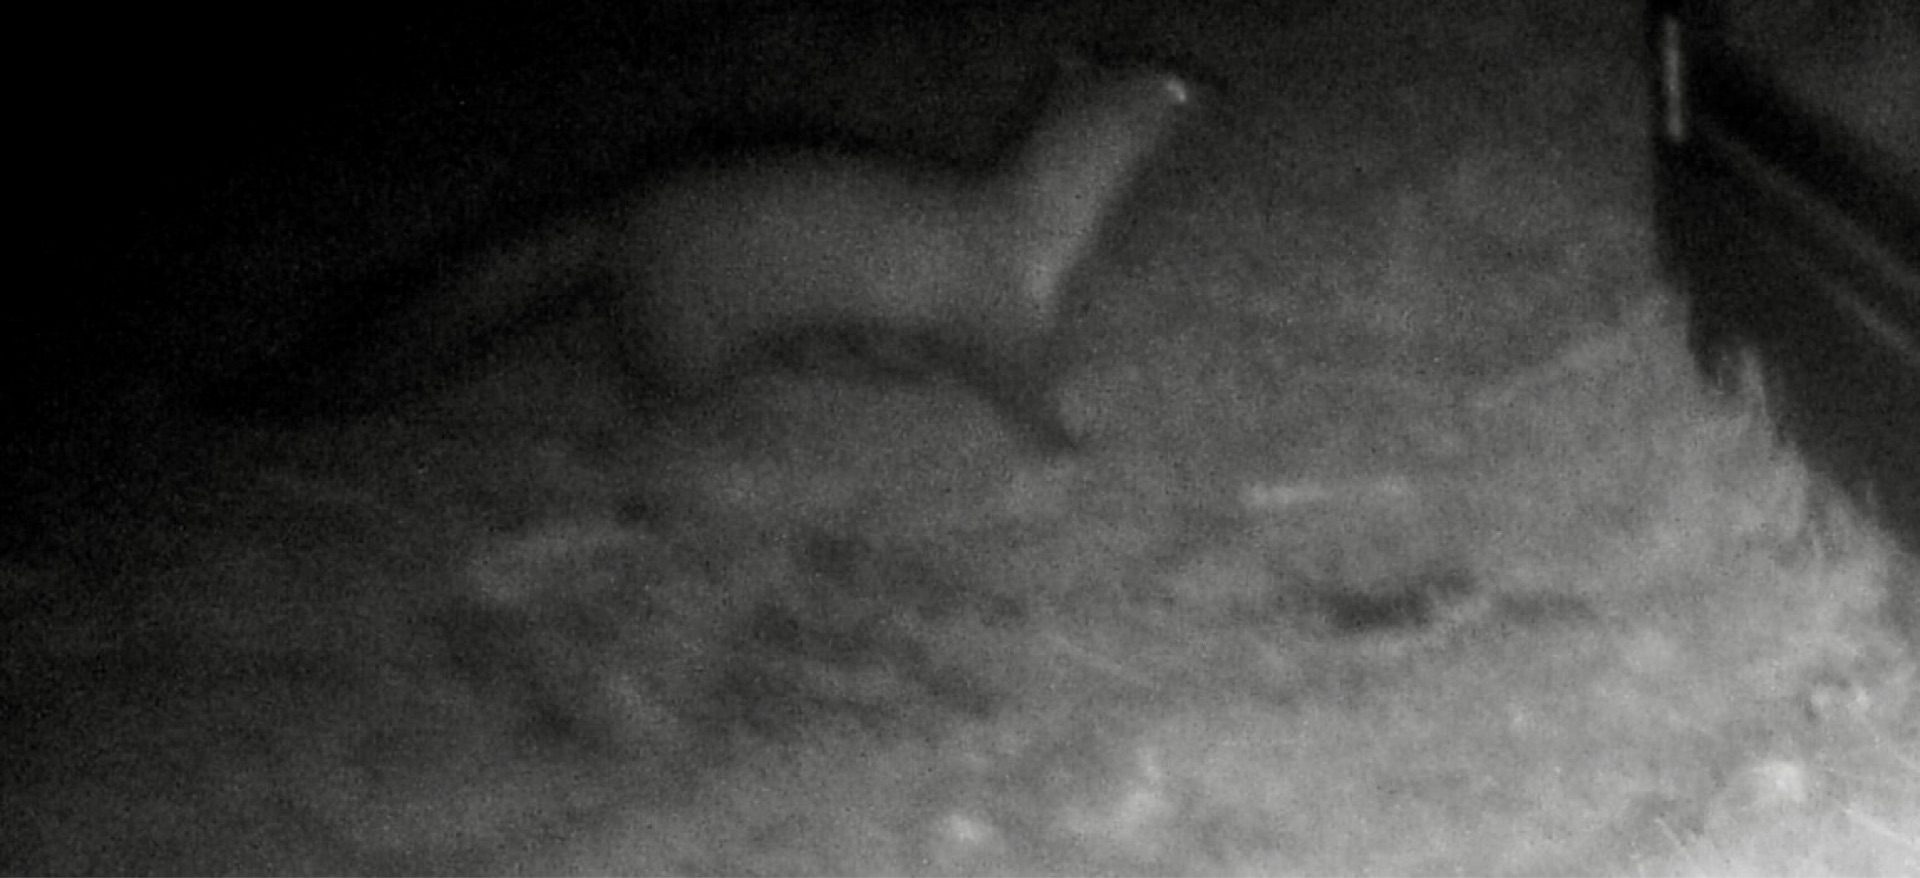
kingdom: Animalia
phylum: Chordata
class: Mammalia
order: Carnivora
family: Mustelidae
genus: Martes
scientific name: Martes foina
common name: Husmår
